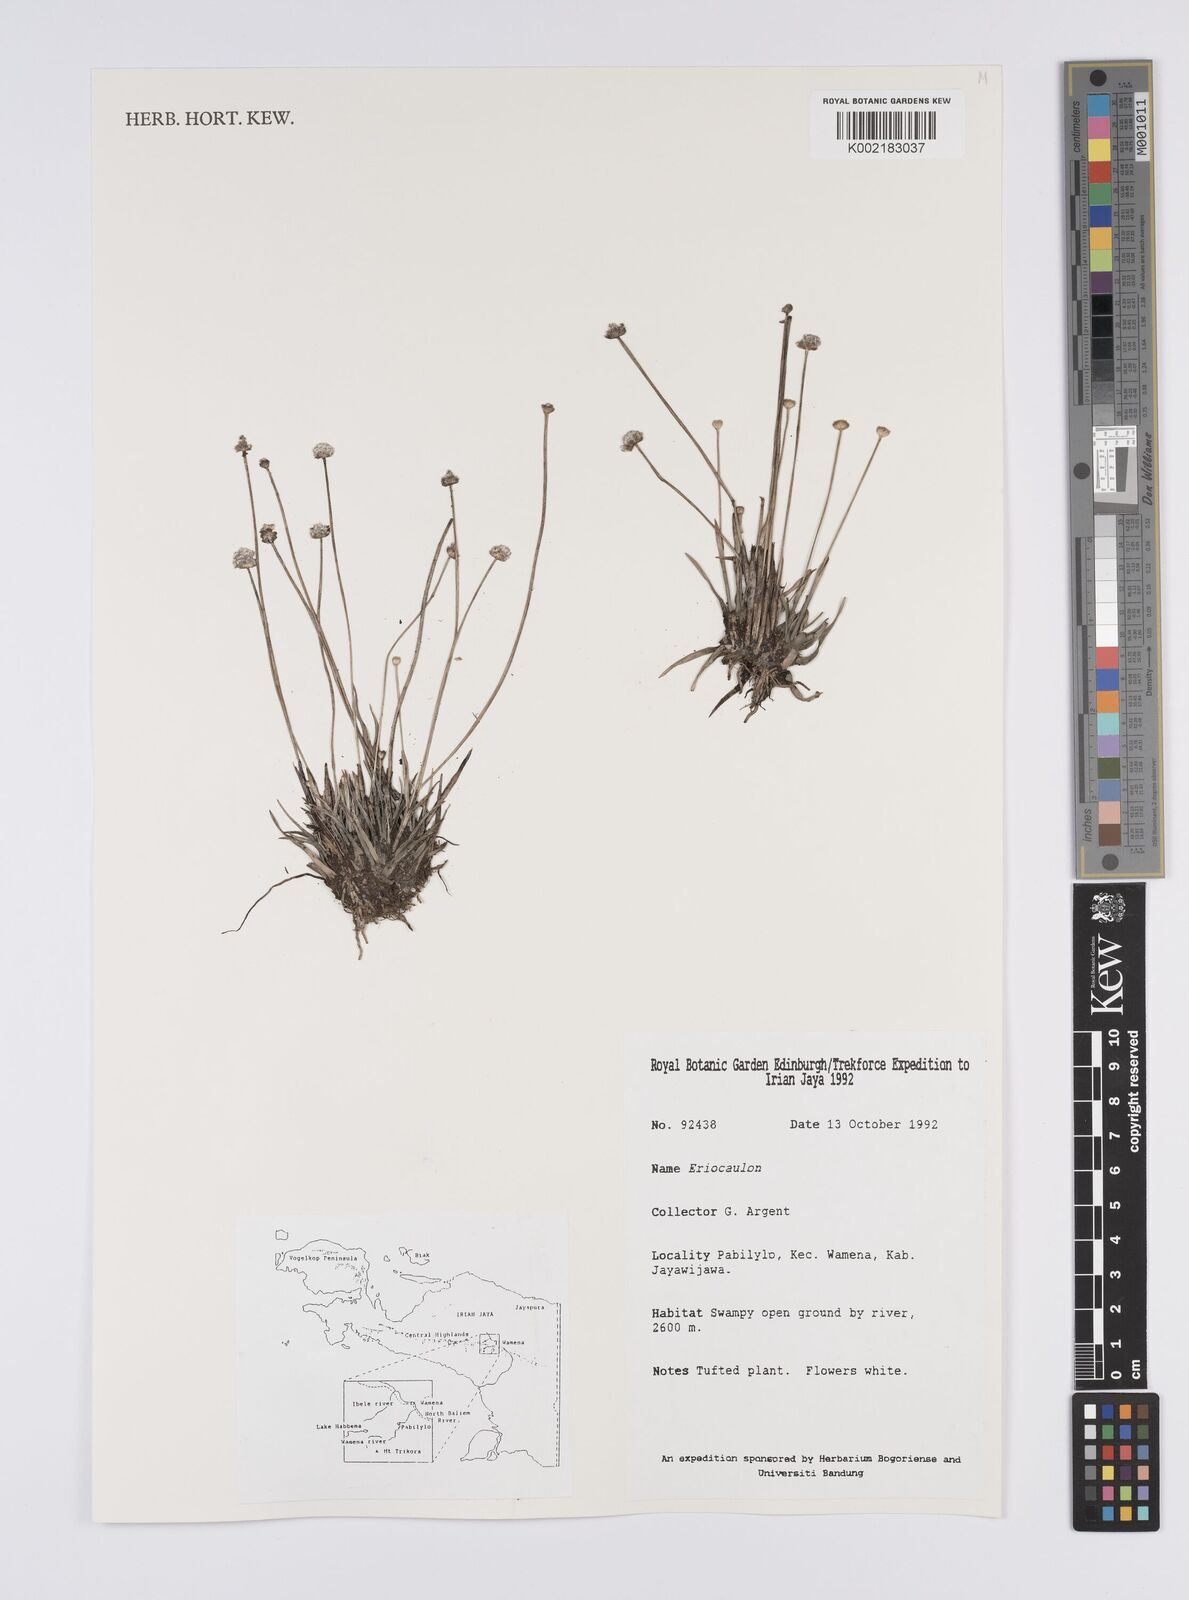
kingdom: Plantae
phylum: Tracheophyta
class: Liliopsida
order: Poales
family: Eriocaulaceae
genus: Eriocaulon
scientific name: Eriocaulon
